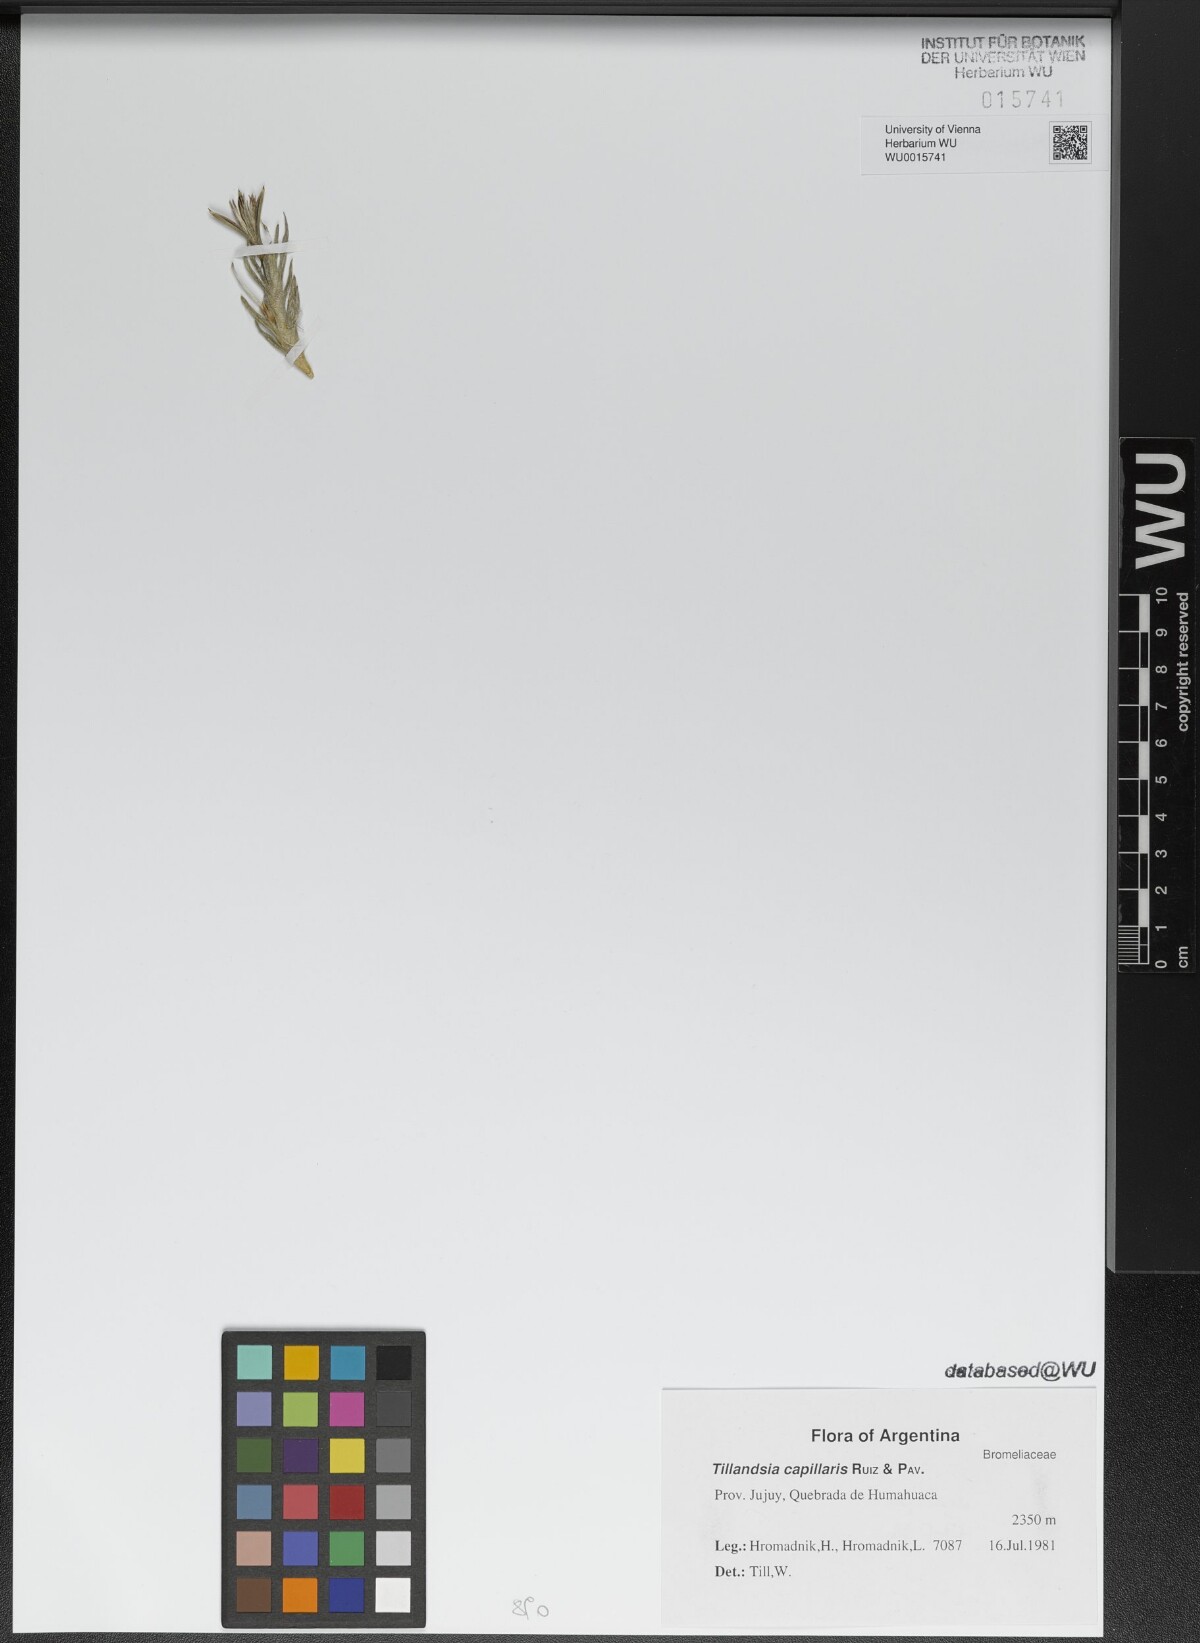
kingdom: Plantae
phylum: Tracheophyta
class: Liliopsida
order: Poales
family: Bromeliaceae
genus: Tillandsia
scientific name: Tillandsia capillaris
